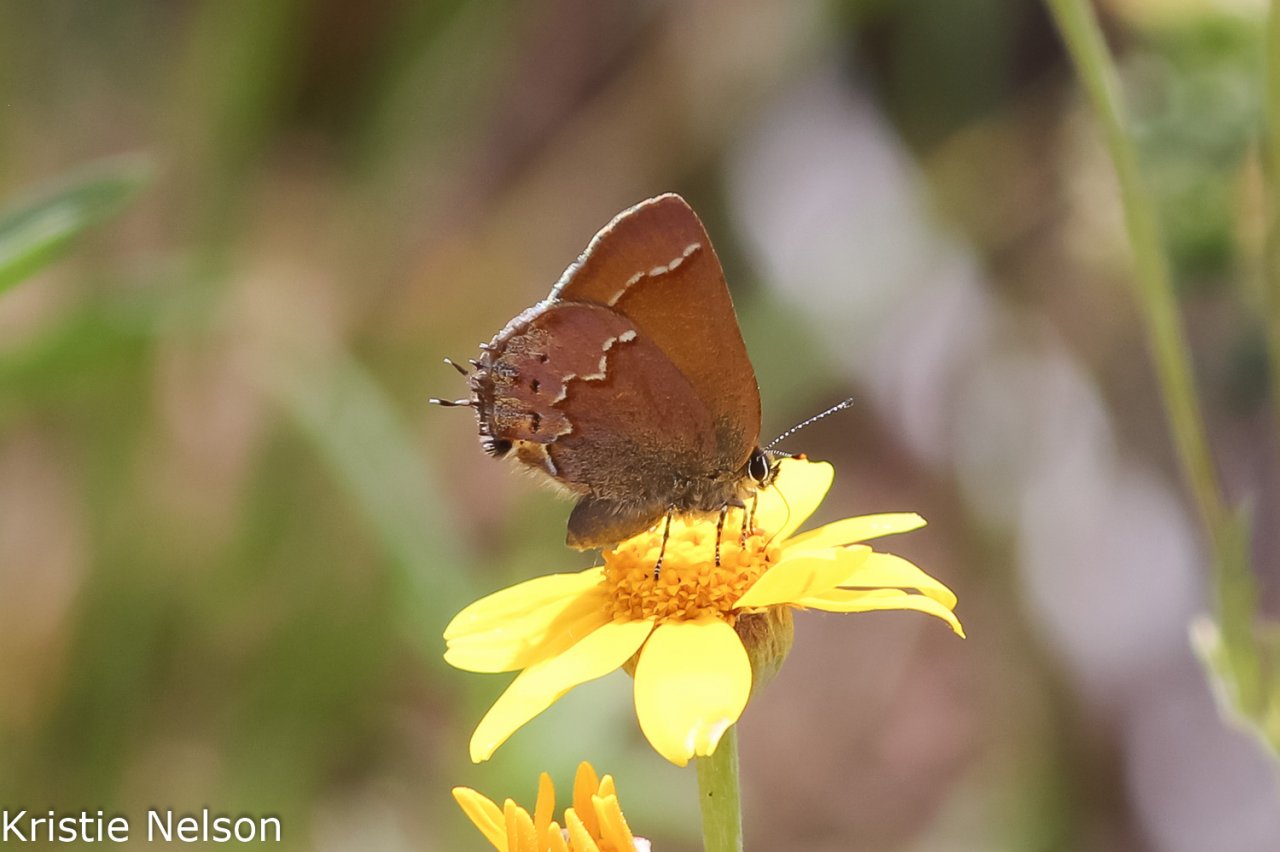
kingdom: Animalia
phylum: Arthropoda
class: Insecta
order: Lepidoptera
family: Lycaenidae
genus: Mitoura
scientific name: Mitoura gryneus
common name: Juniper Hairstreak
